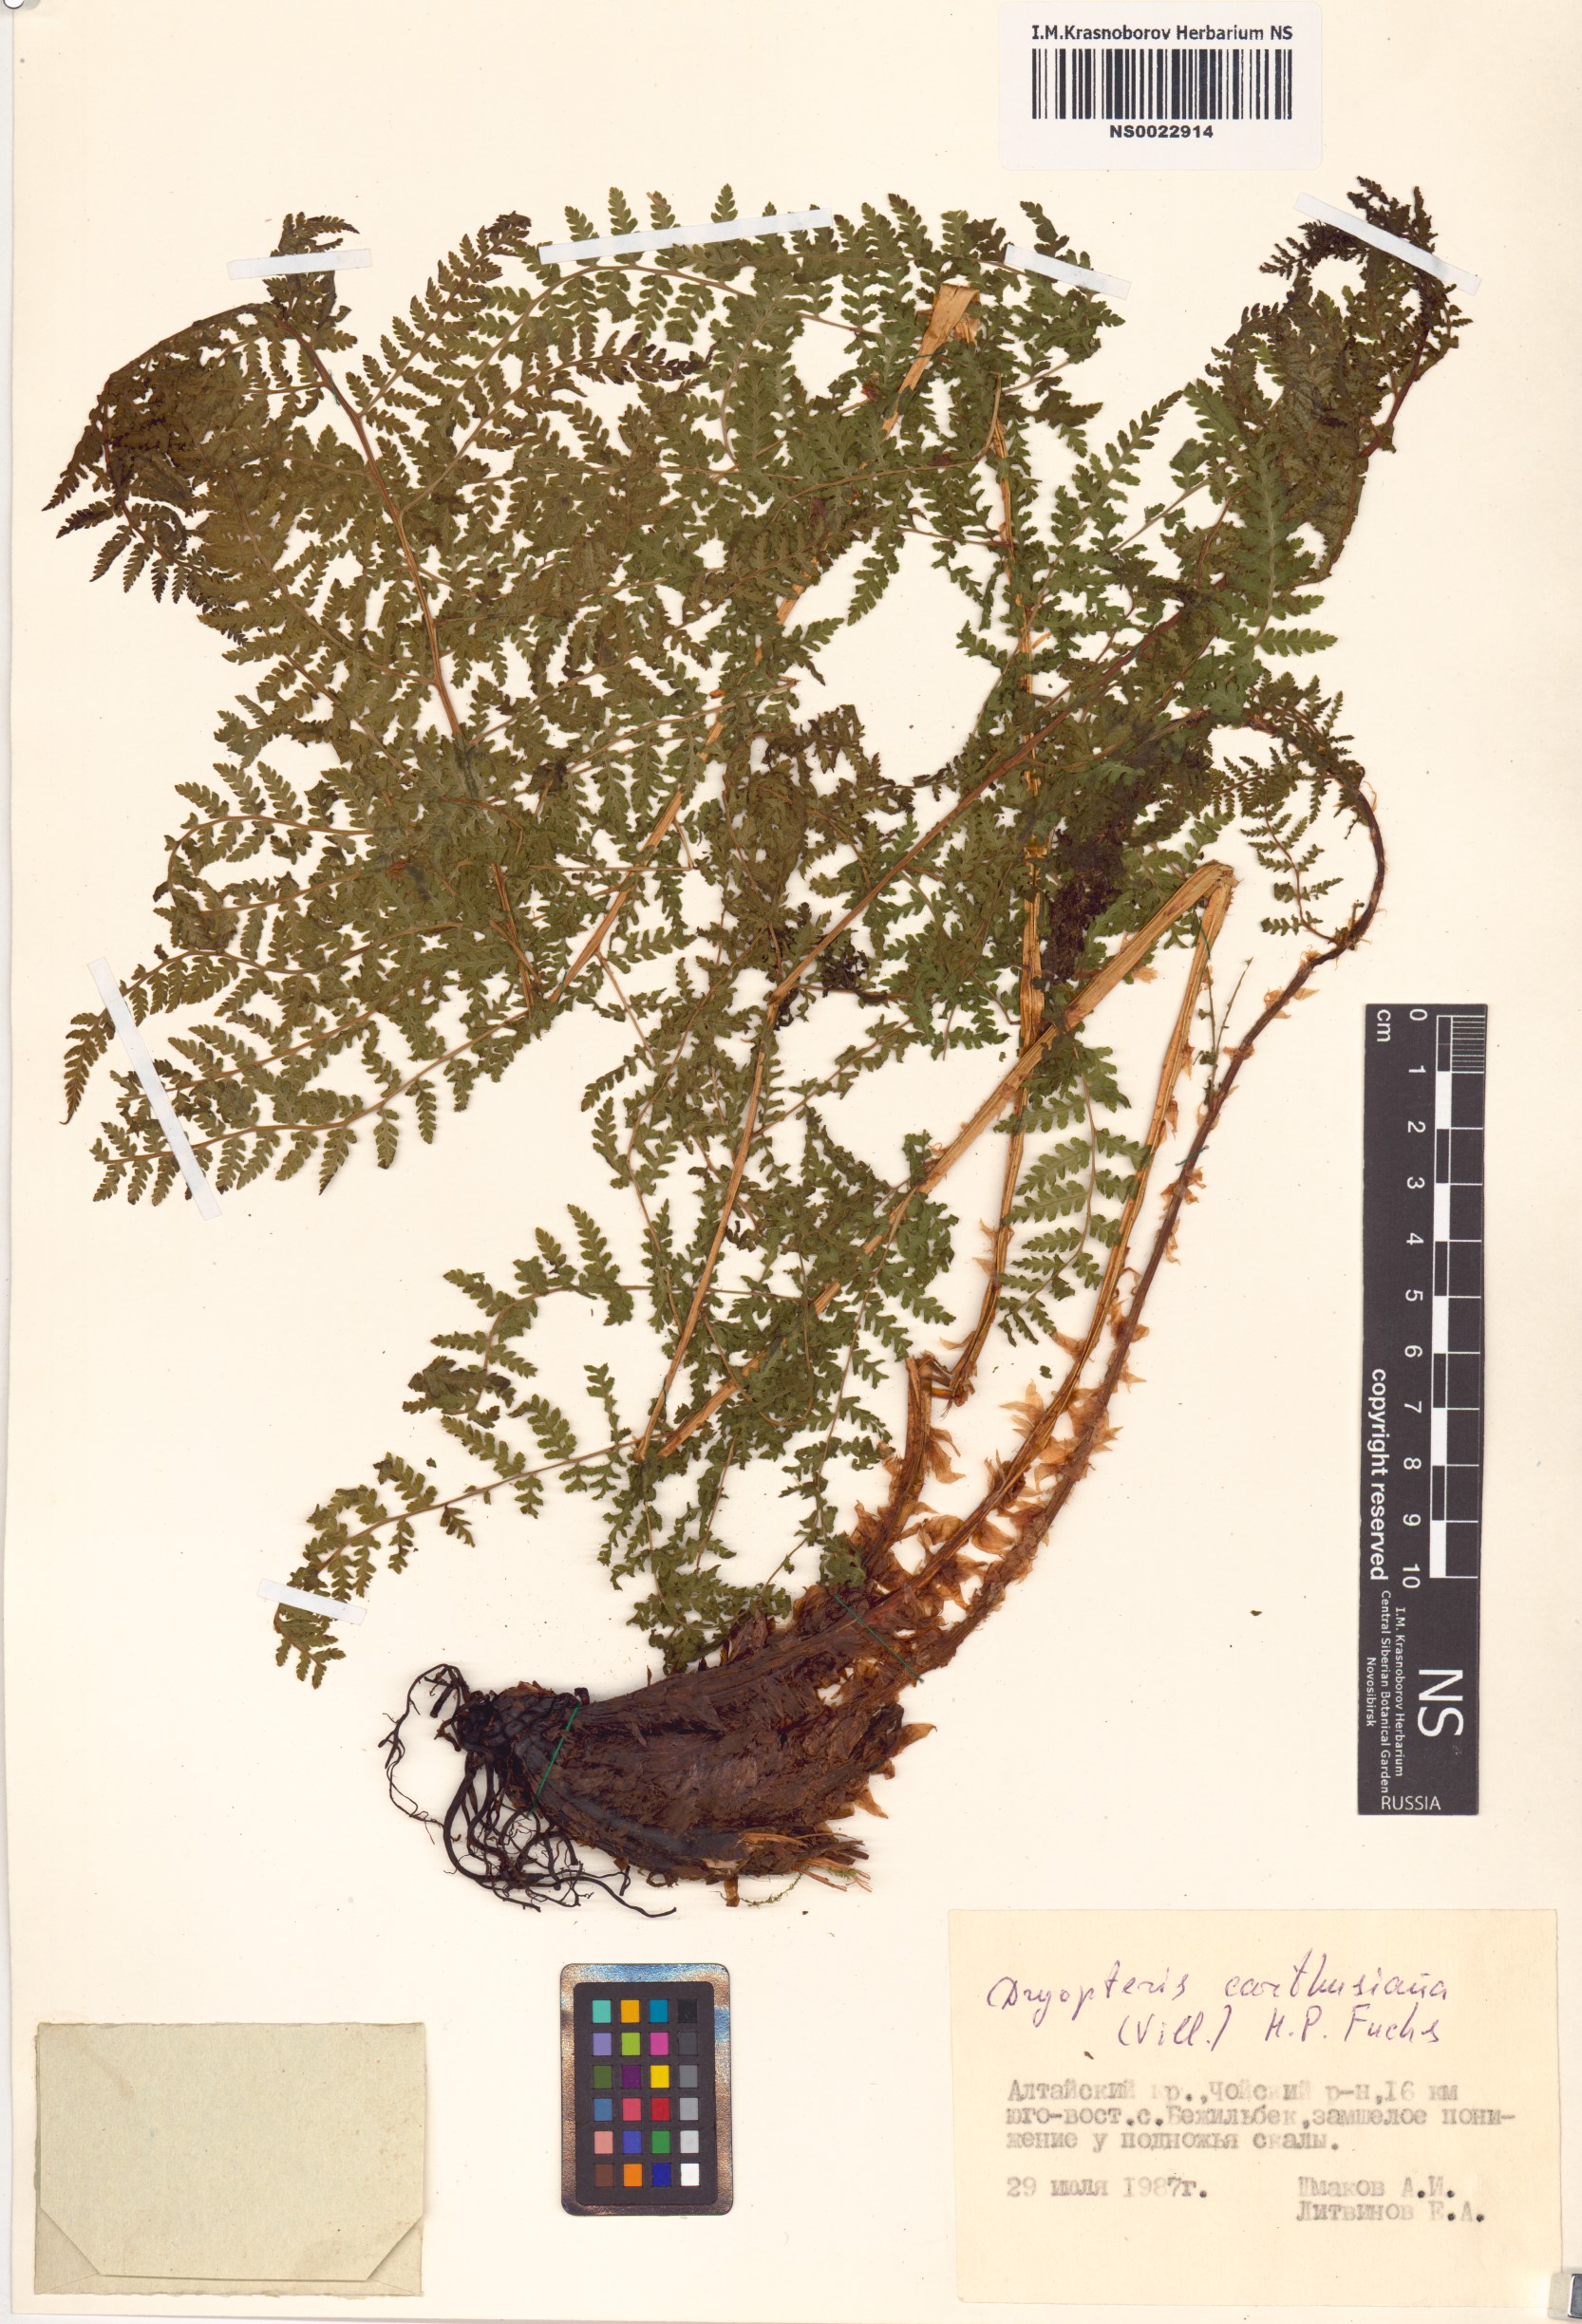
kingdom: Plantae
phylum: Tracheophyta
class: Polypodiopsida
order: Polypodiales
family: Dryopteridaceae
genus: Dryopteris
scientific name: Dryopteris carthusiana
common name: Narrow buckler-fern
